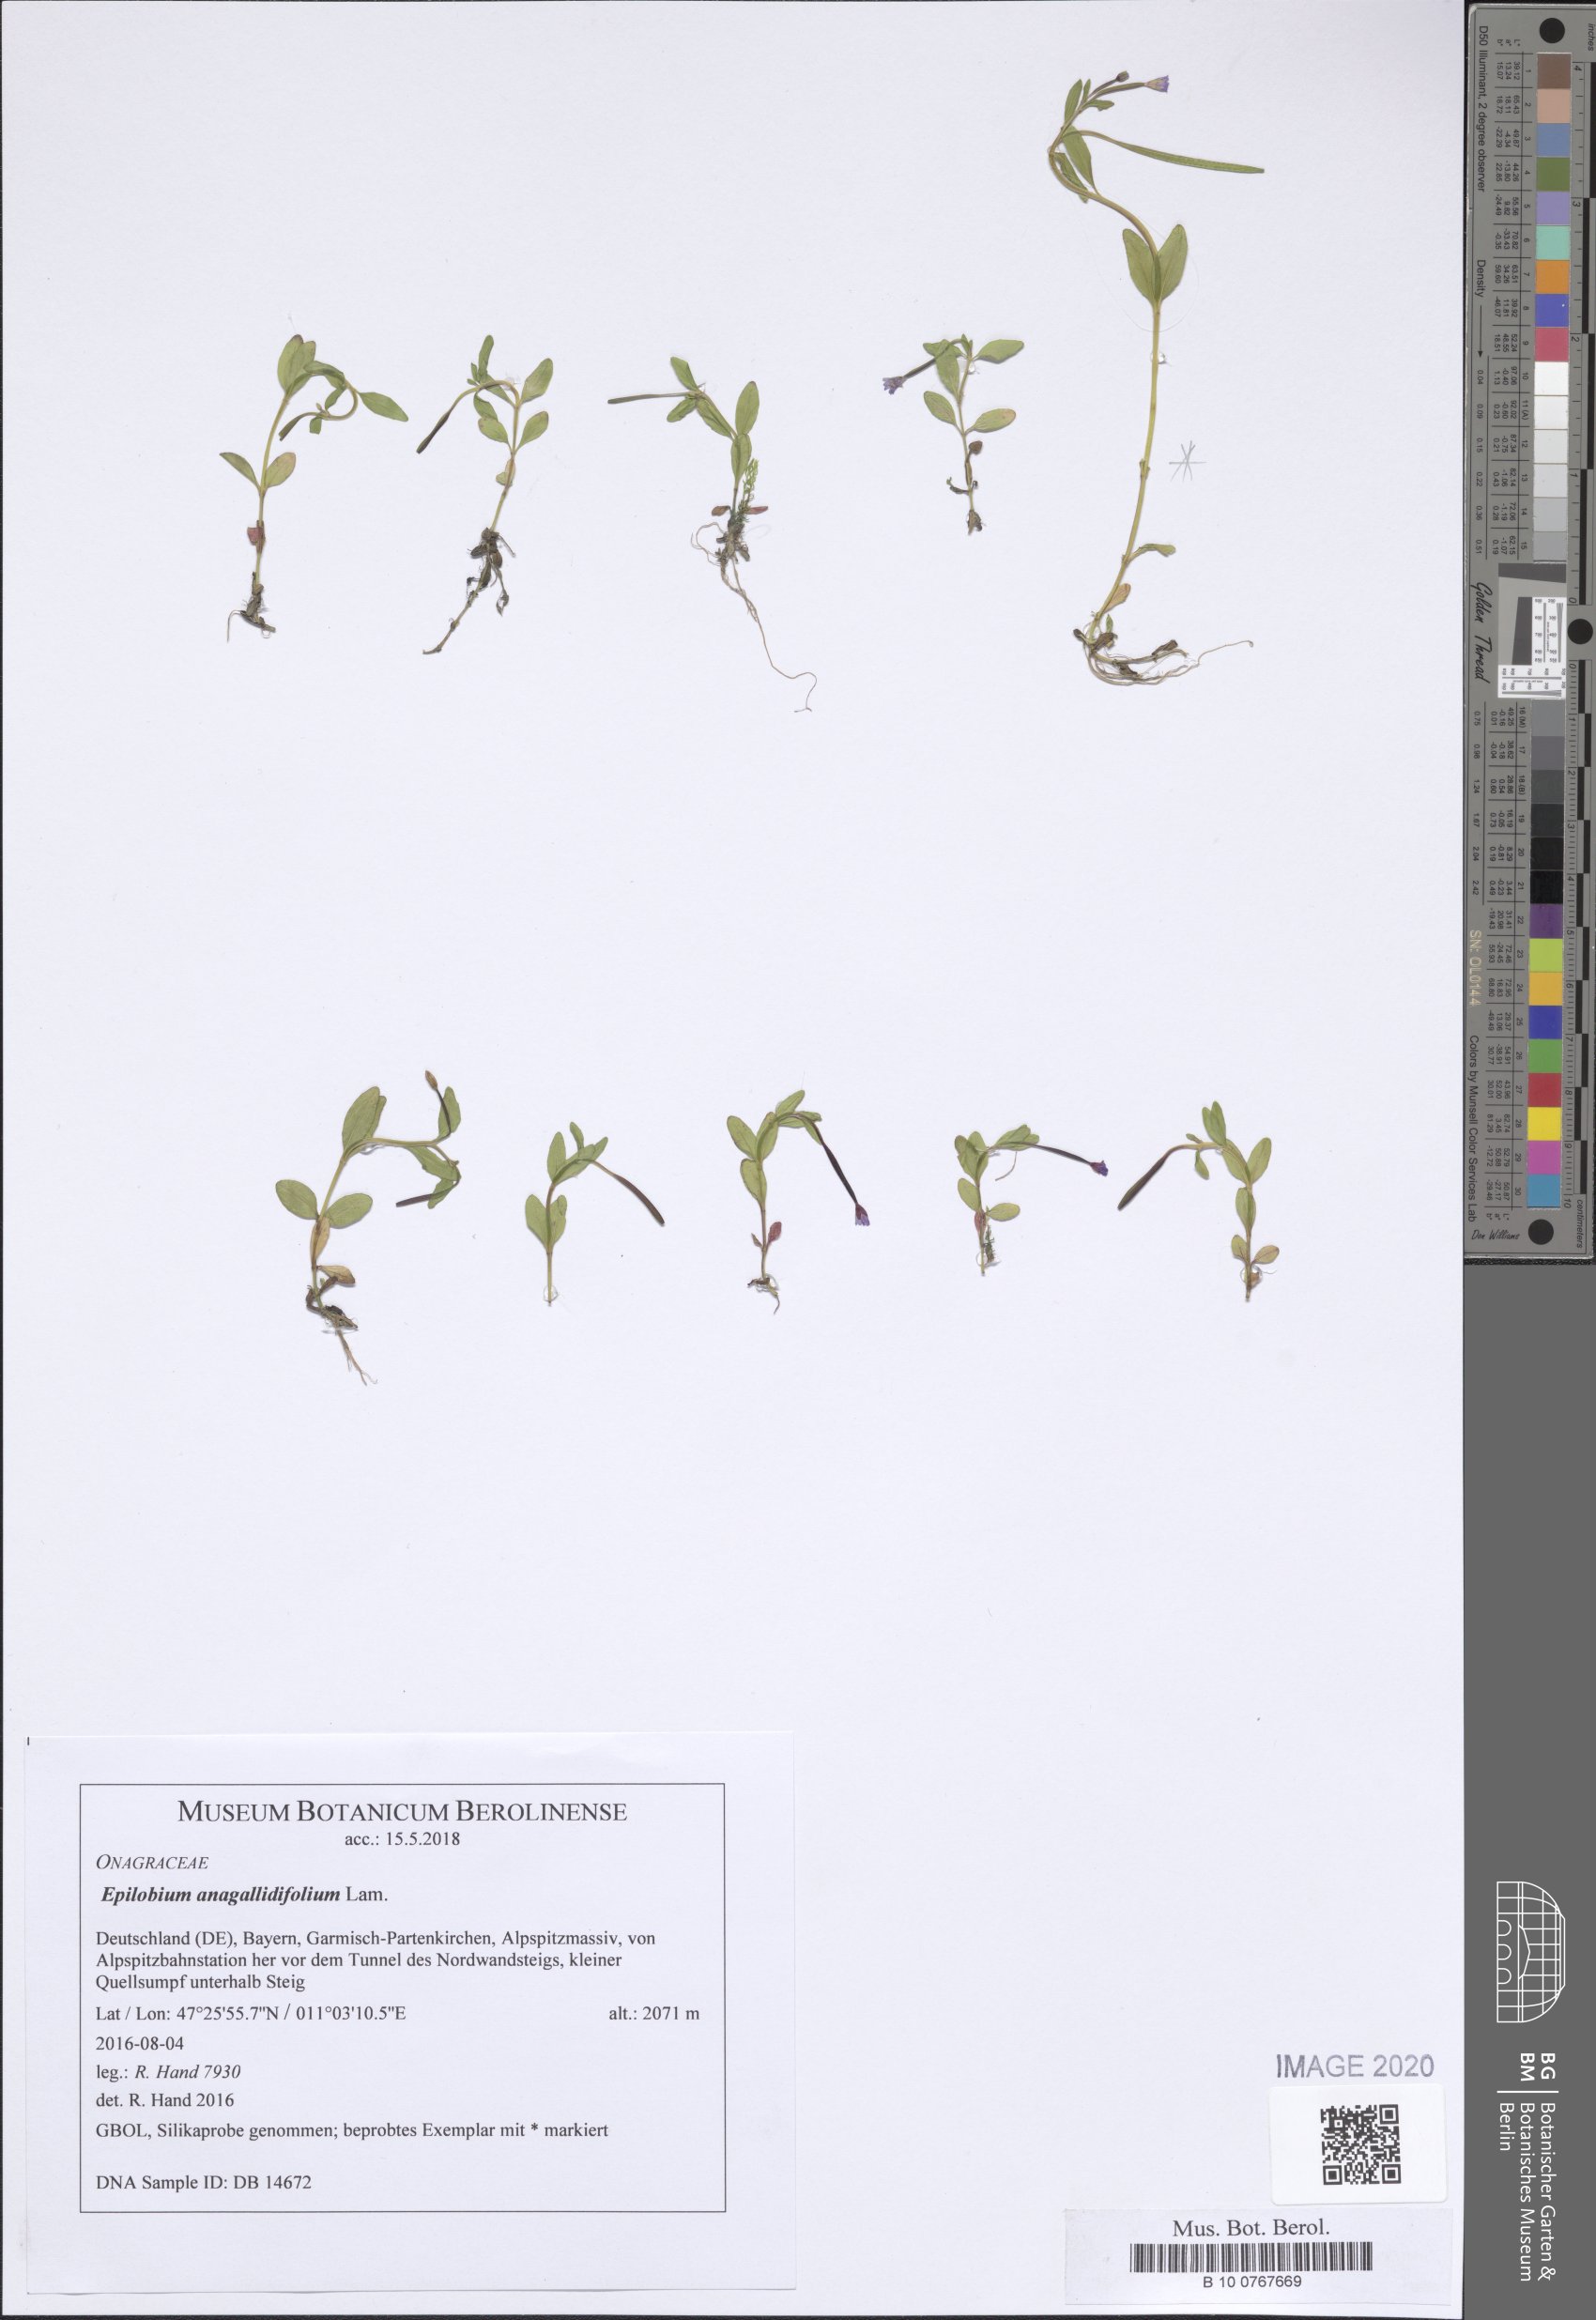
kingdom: Plantae
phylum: Tracheophyta
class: Magnoliopsida
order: Myrtales
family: Onagraceae
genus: Epilobium
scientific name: Epilobium anagallidifolium
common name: Alpine willowherb
